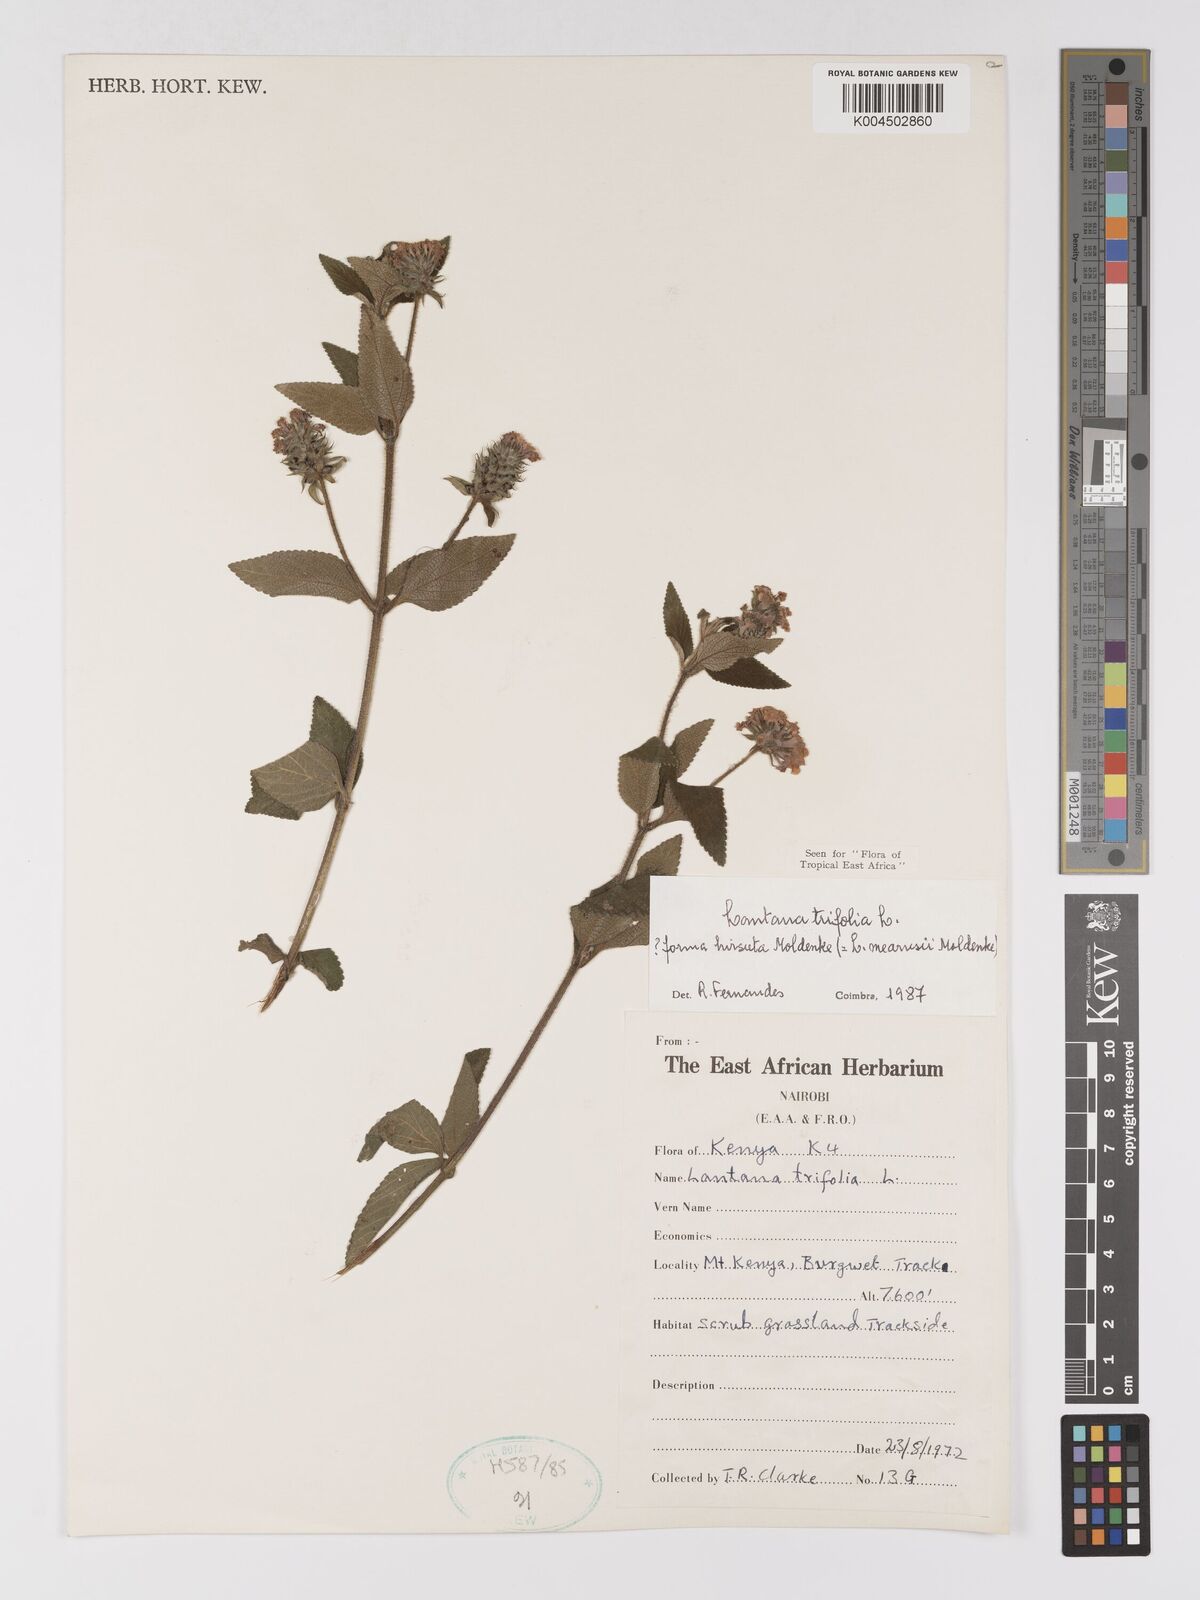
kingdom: Plantae
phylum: Tracheophyta
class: Magnoliopsida
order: Lamiales
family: Verbenaceae
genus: Lantana
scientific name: Lantana trifolia
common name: Sweet-sage
